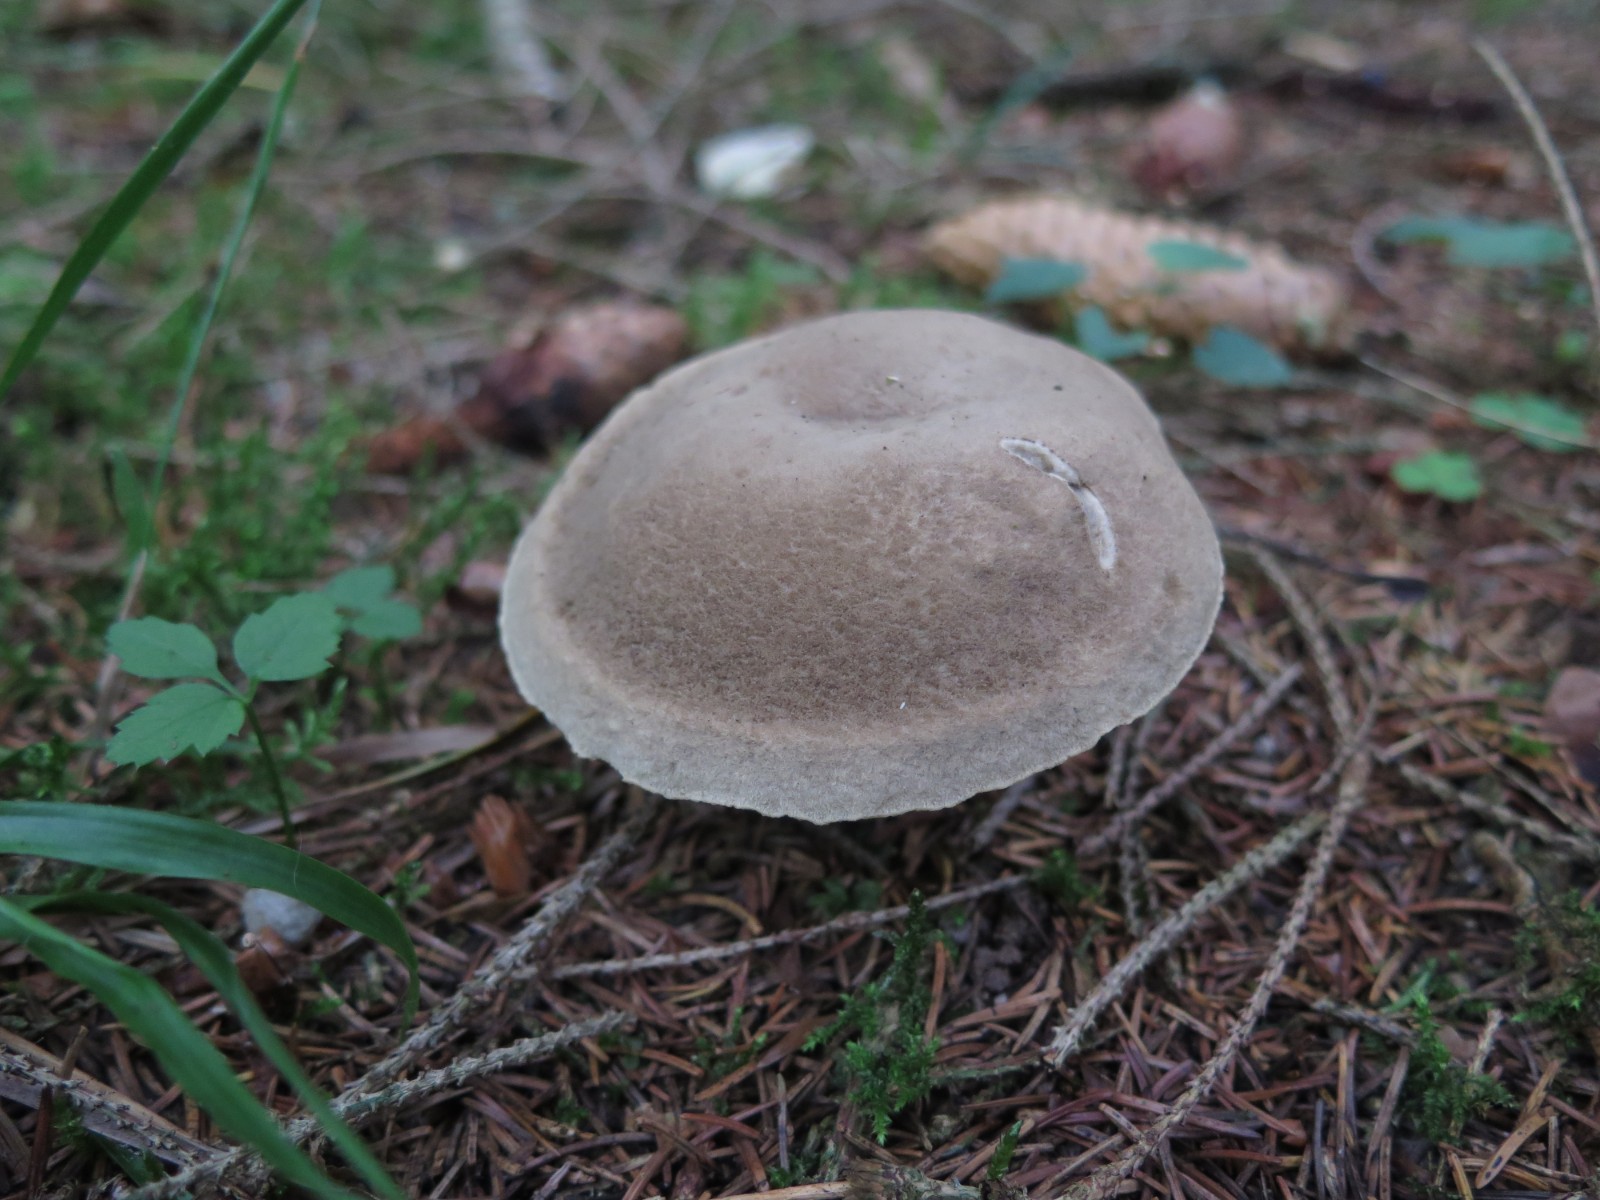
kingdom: Fungi
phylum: Basidiomycota
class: Agaricomycetes
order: Boletales
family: Boletaceae
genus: Xerocomus
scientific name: Xerocomus
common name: filtrørhat
